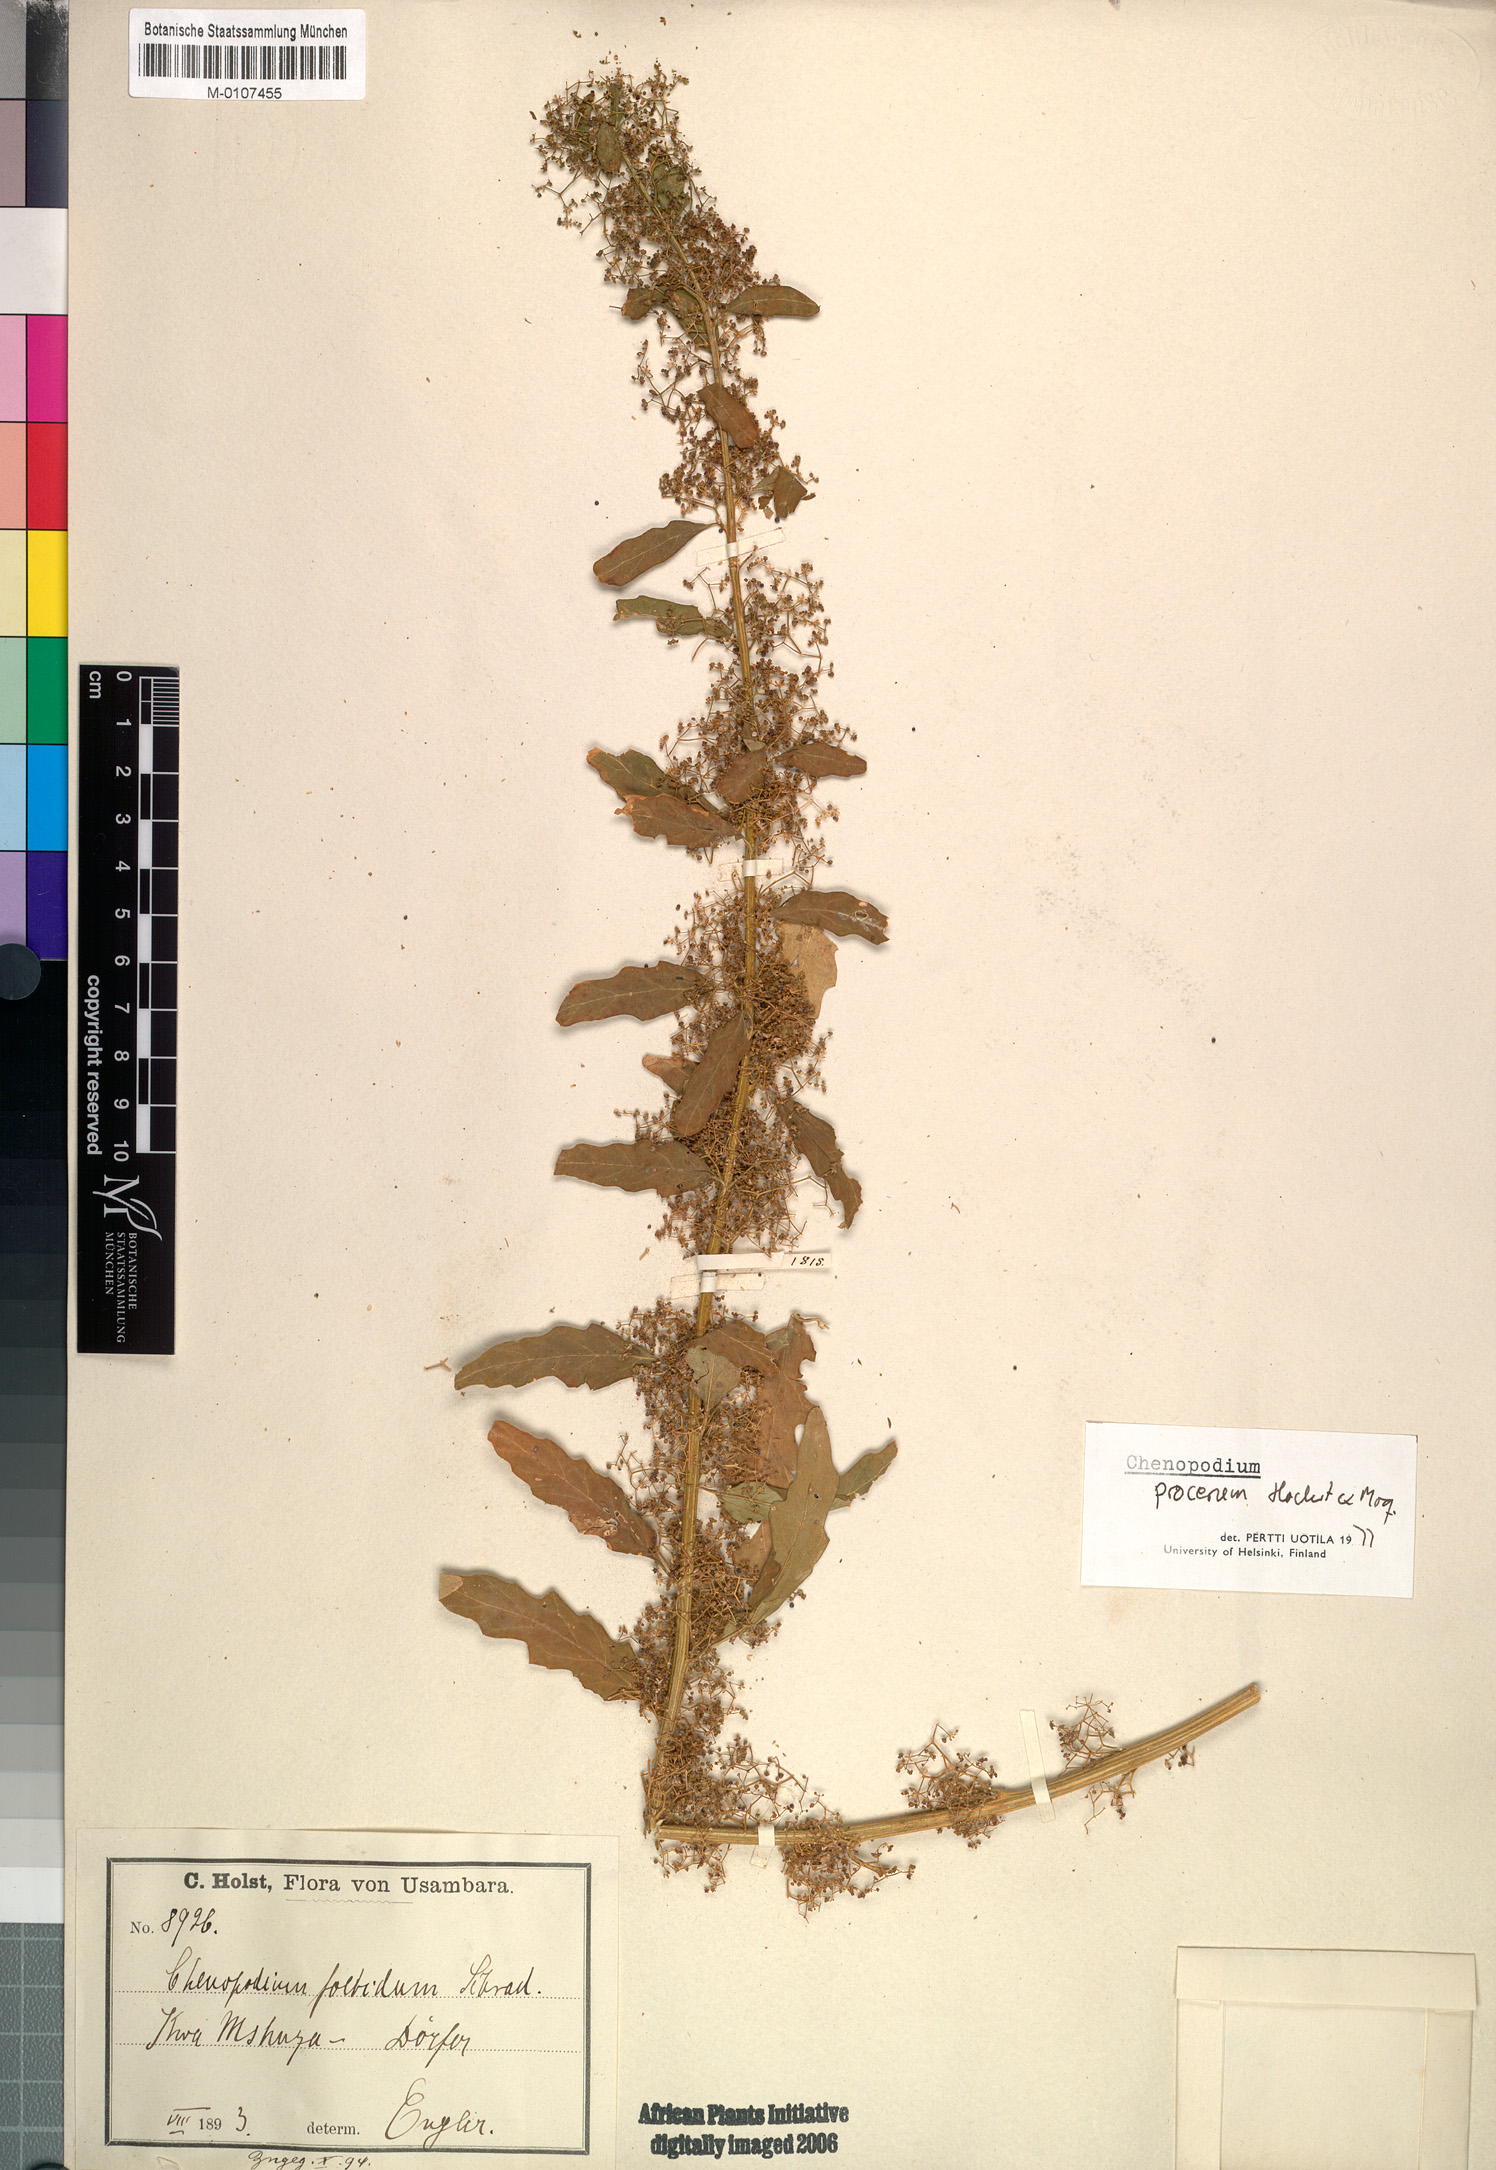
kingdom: Plantae
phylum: Tracheophyta
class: Magnoliopsida
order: Caryophyllales
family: Amaranthaceae
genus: Dysphania
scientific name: Dysphania procera
